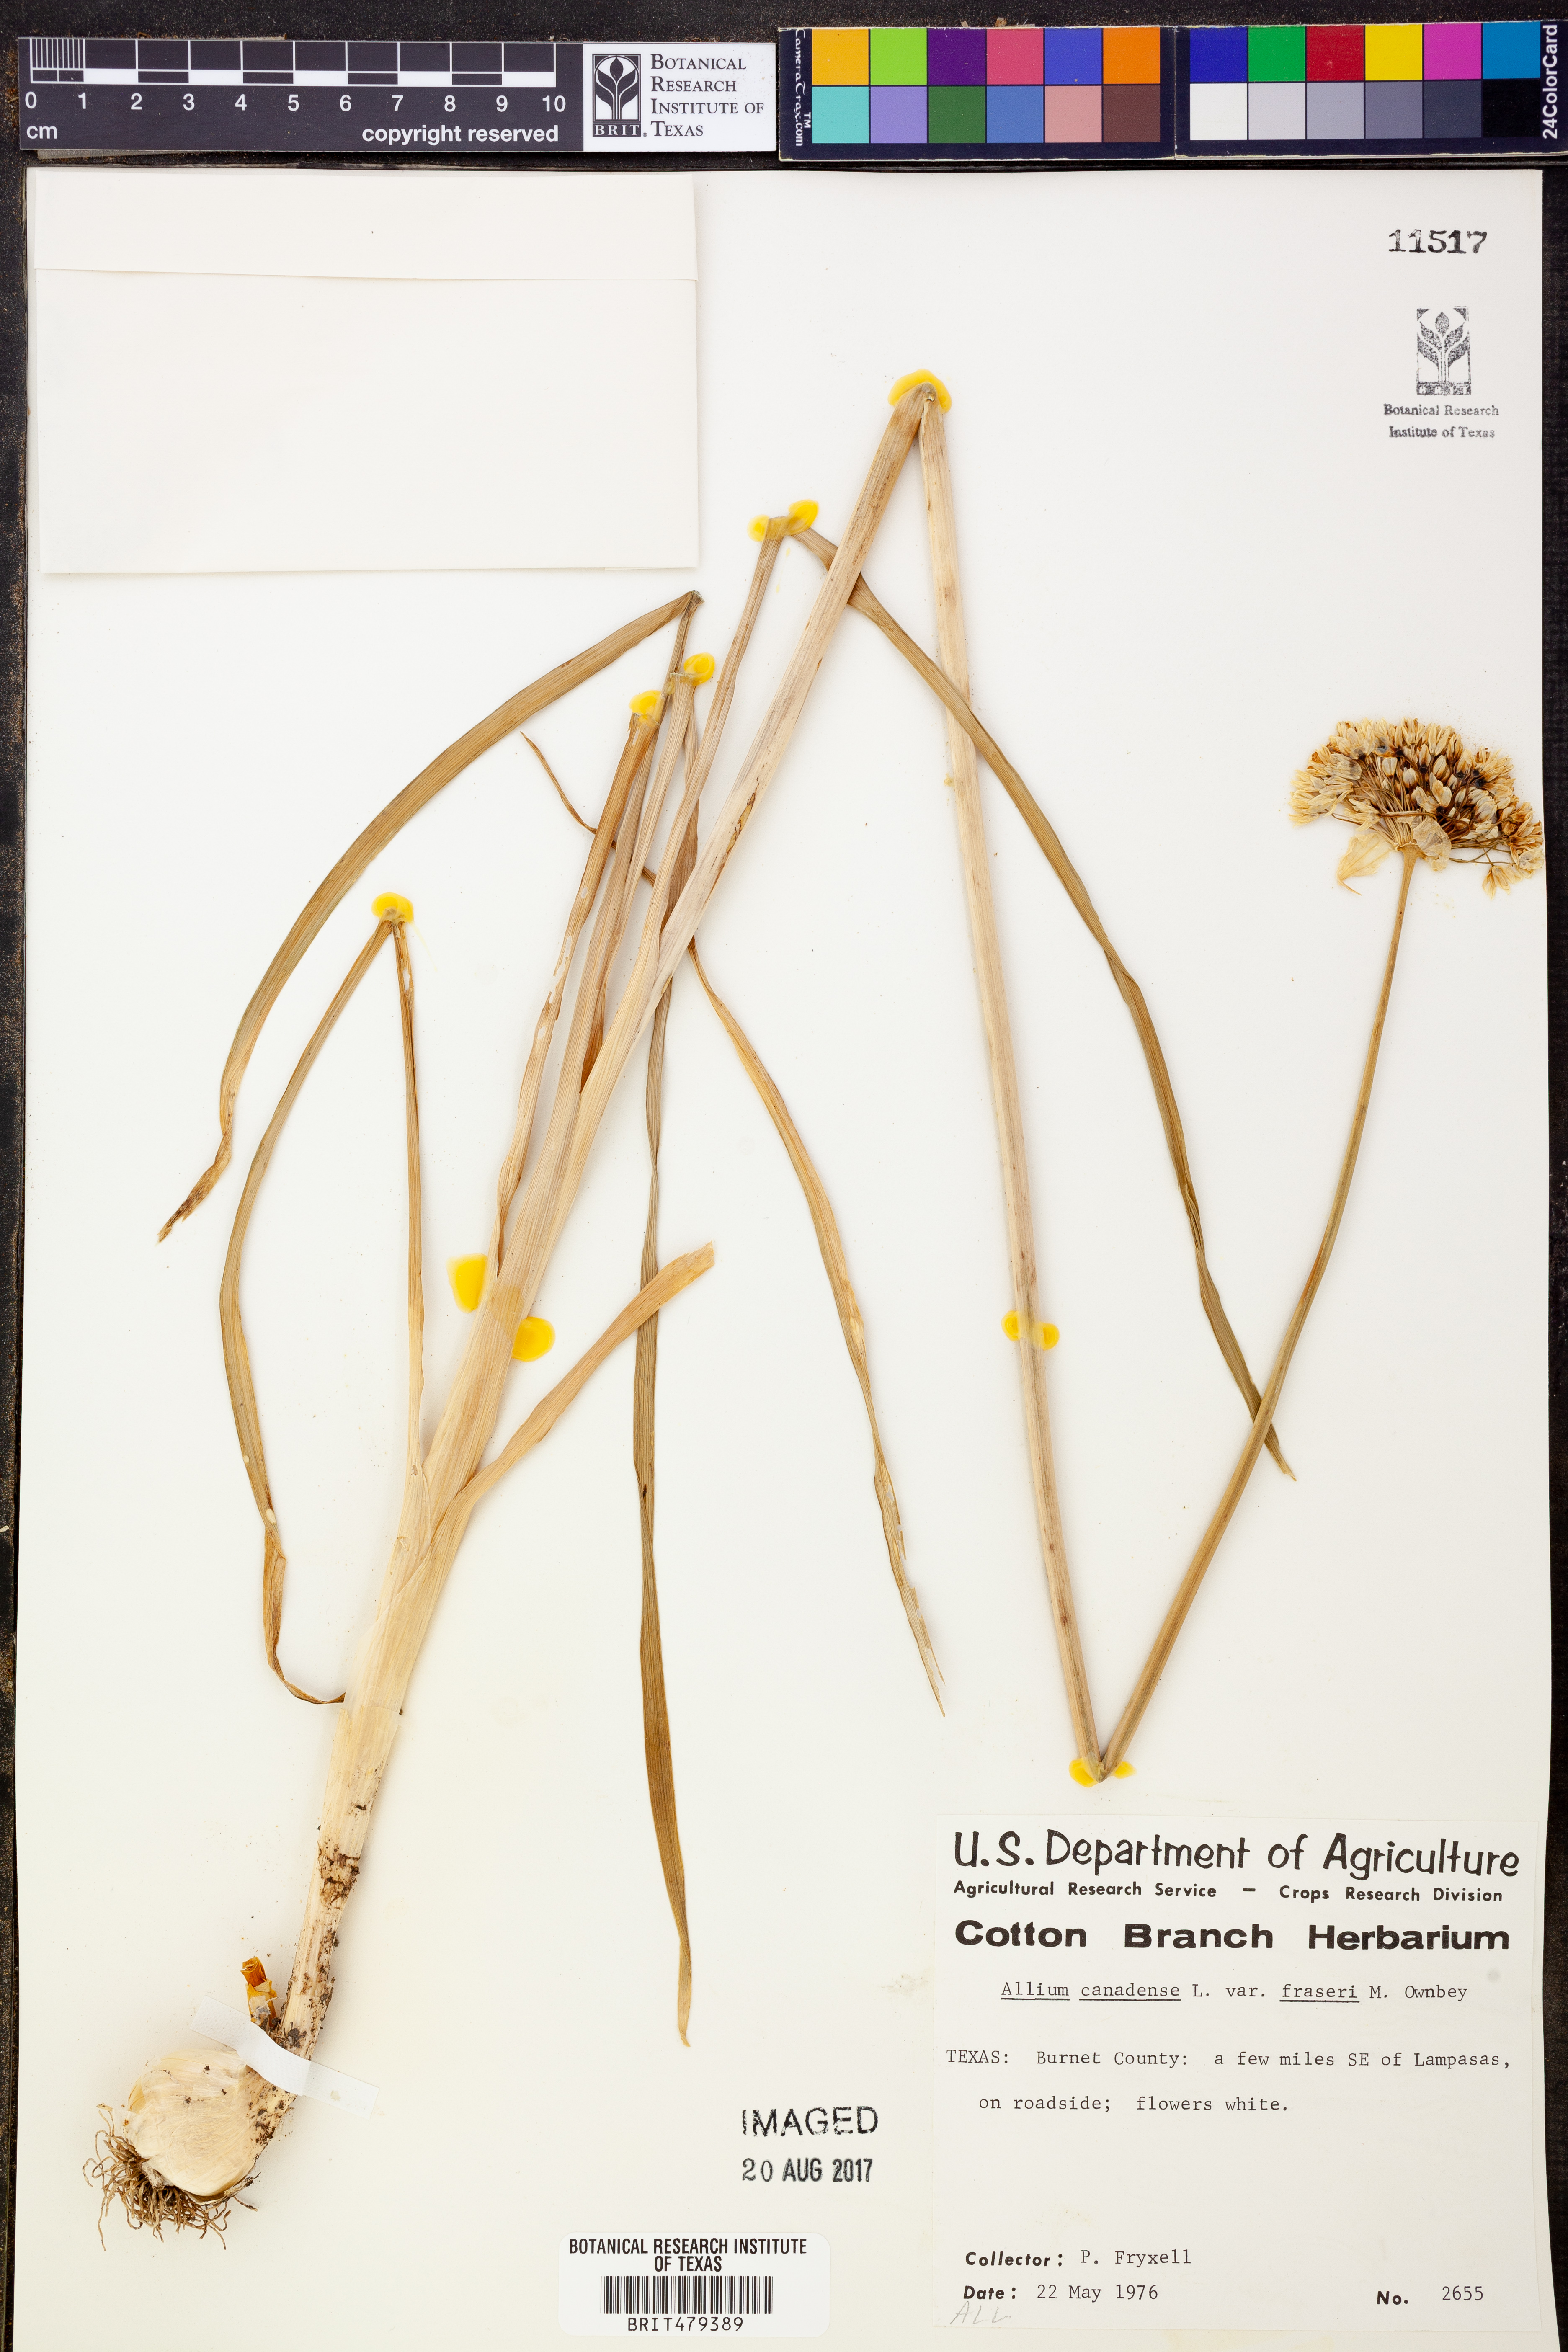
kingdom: Plantae
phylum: Tracheophyta
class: Liliopsida
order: Asparagales
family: Amaryllidaceae
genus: Allium
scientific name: Allium fraseri
